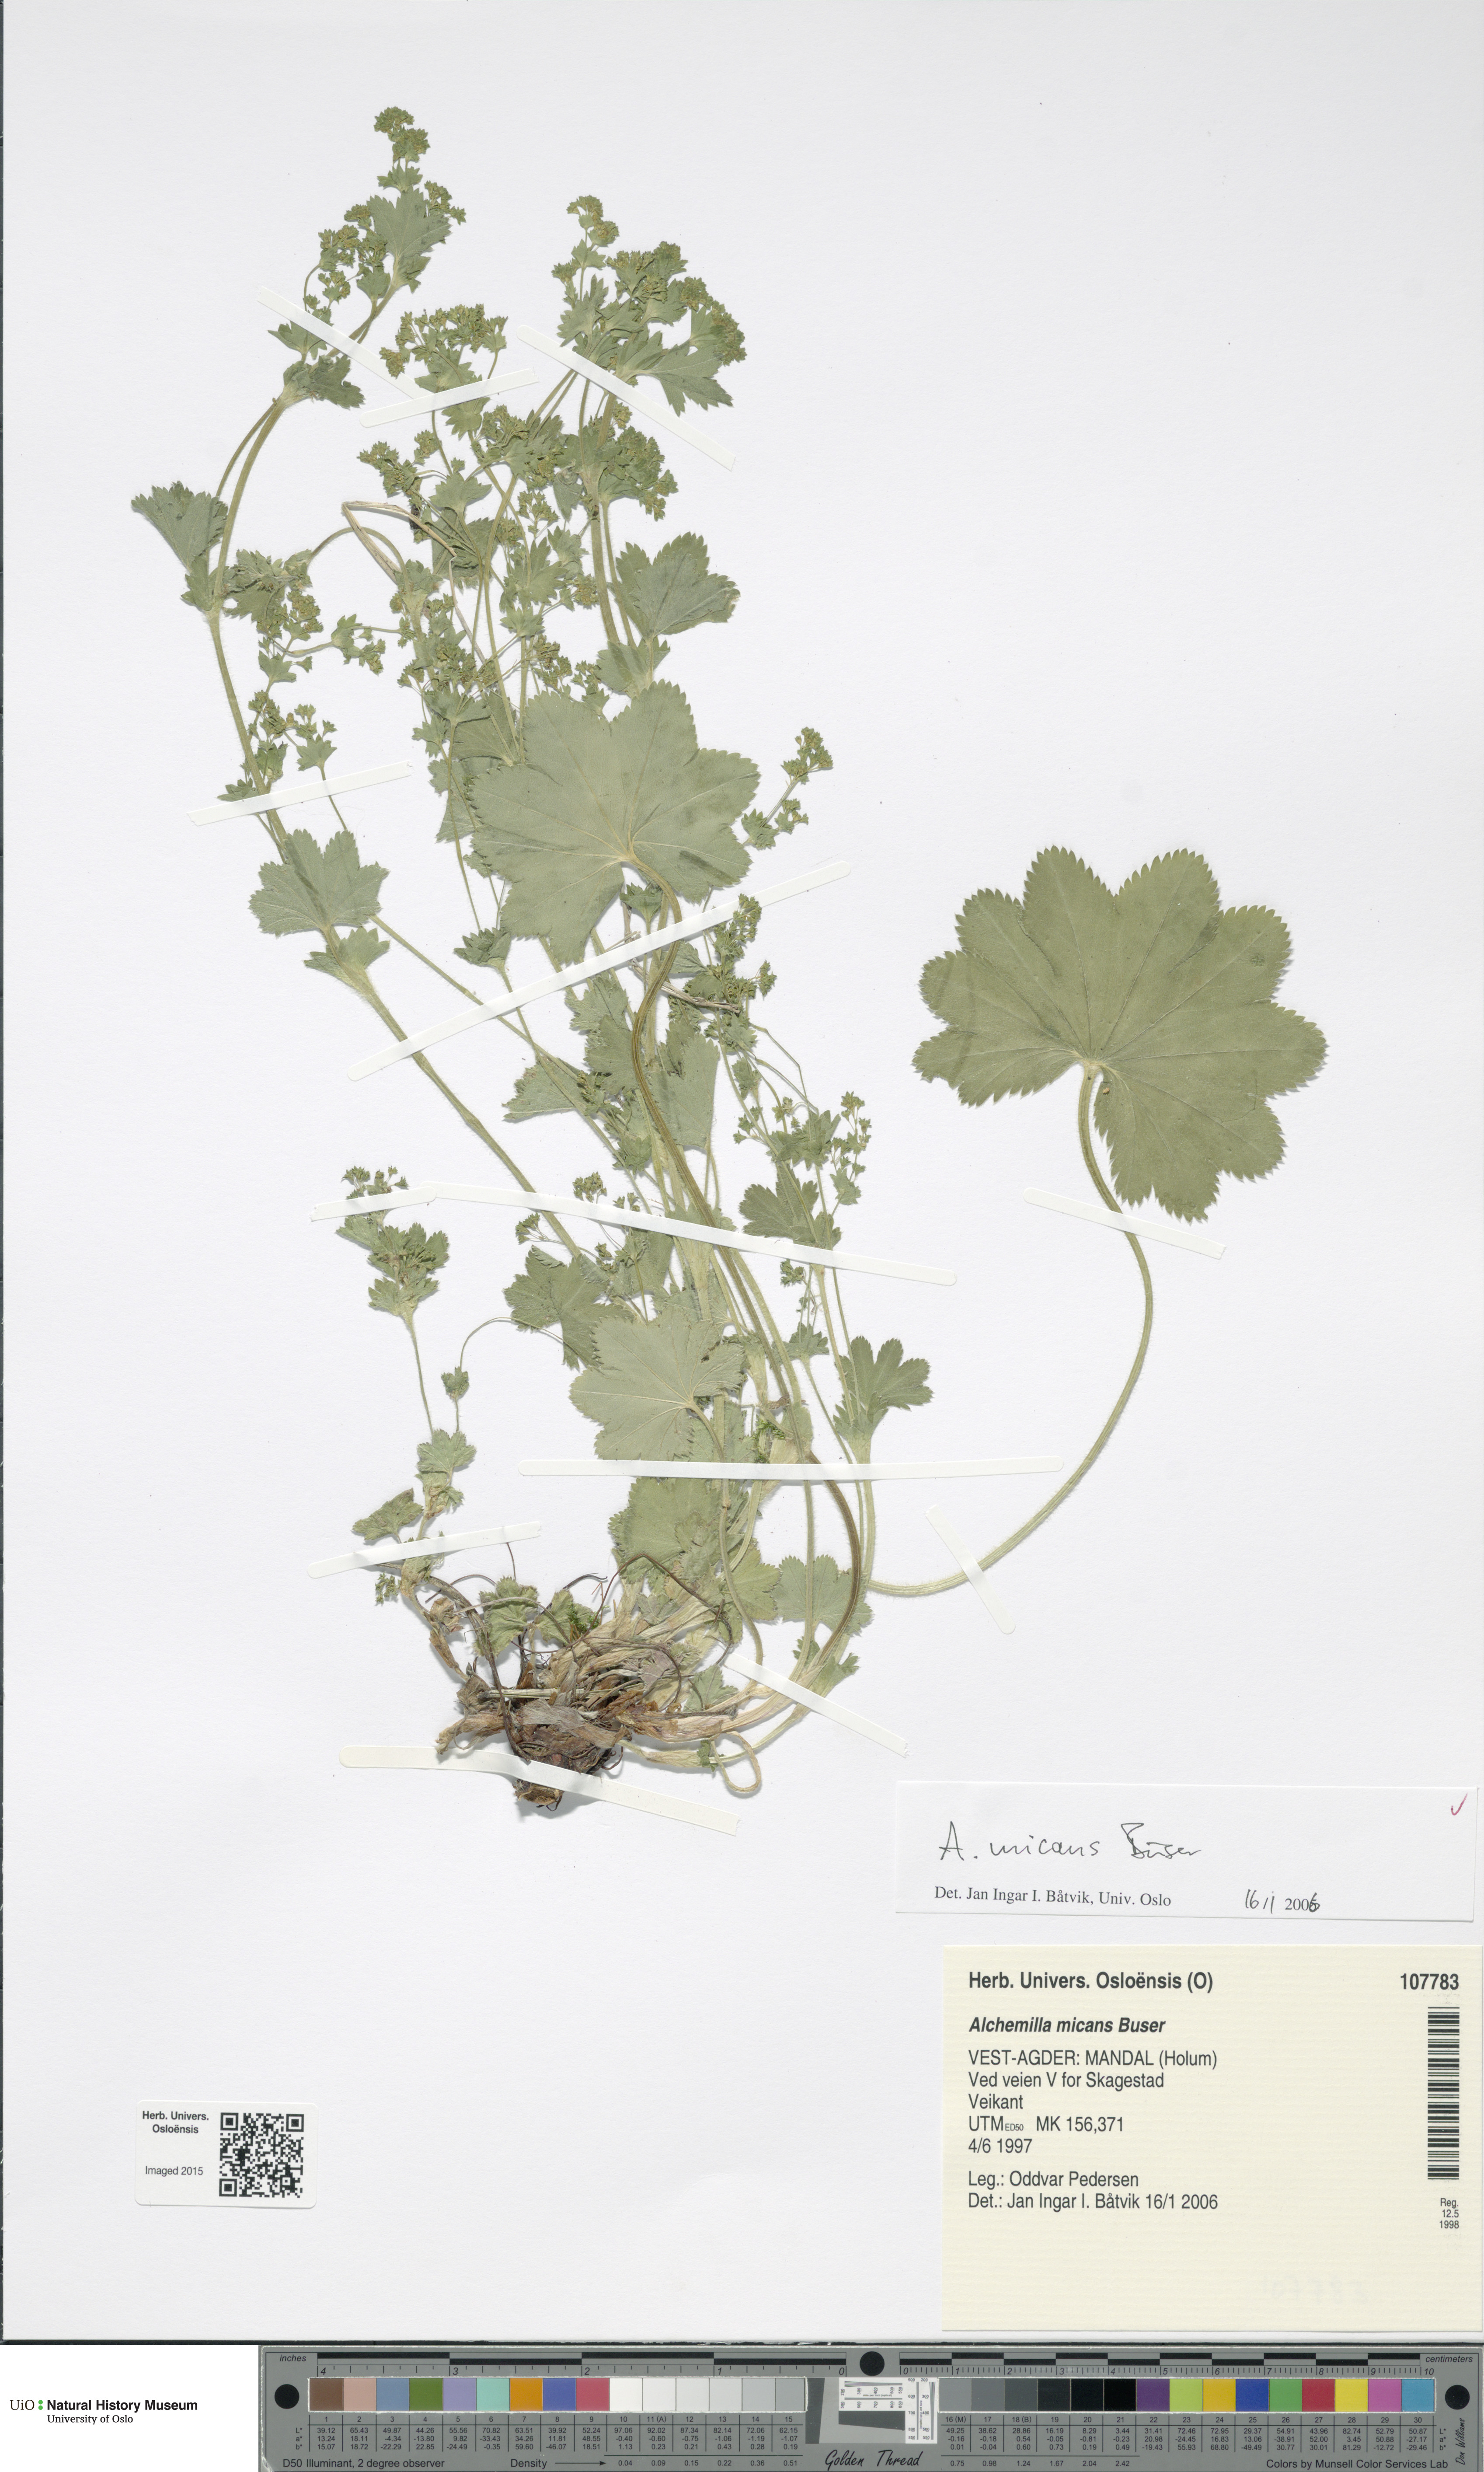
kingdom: Plantae
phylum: Tracheophyta
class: Magnoliopsida
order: Rosales
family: Rosaceae
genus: Alchemilla
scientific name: Alchemilla micans
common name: Gleaming lady's mantle
